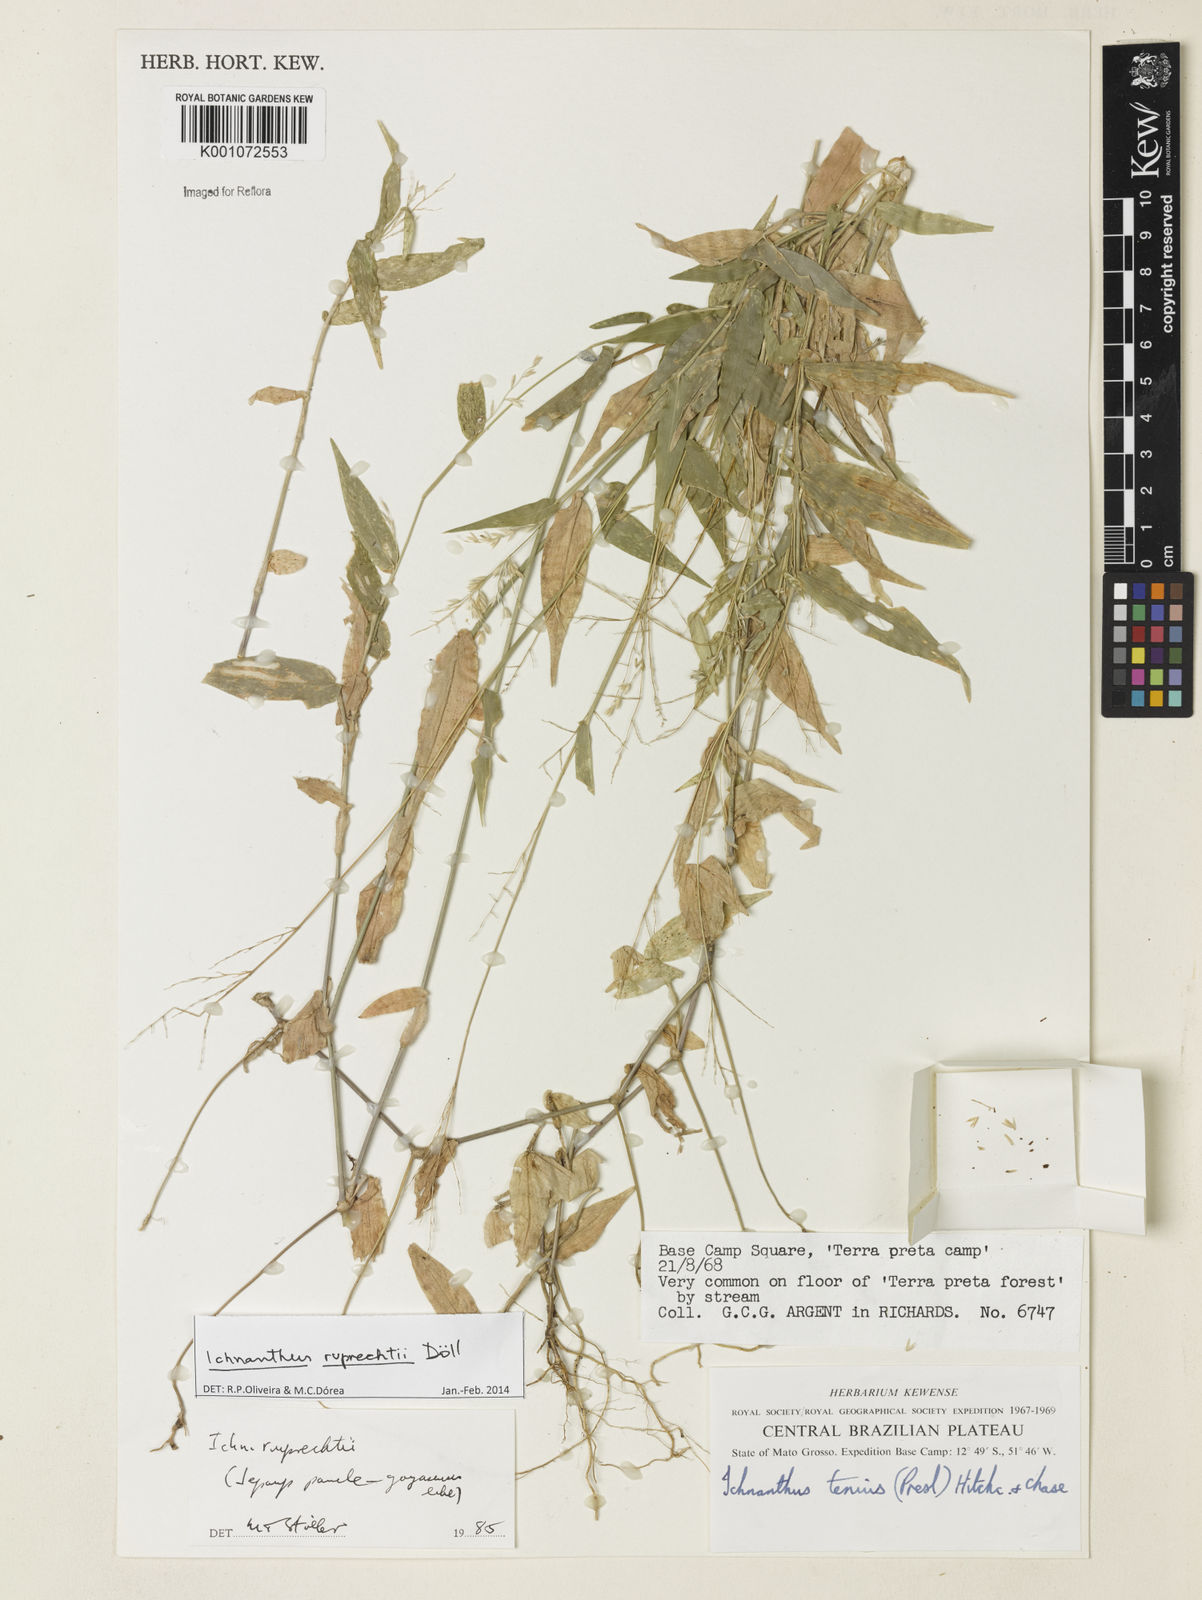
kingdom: Plantae
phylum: Tracheophyta
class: Liliopsida
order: Poales
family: Poaceae
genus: Ichnanthus
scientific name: Ichnanthus
